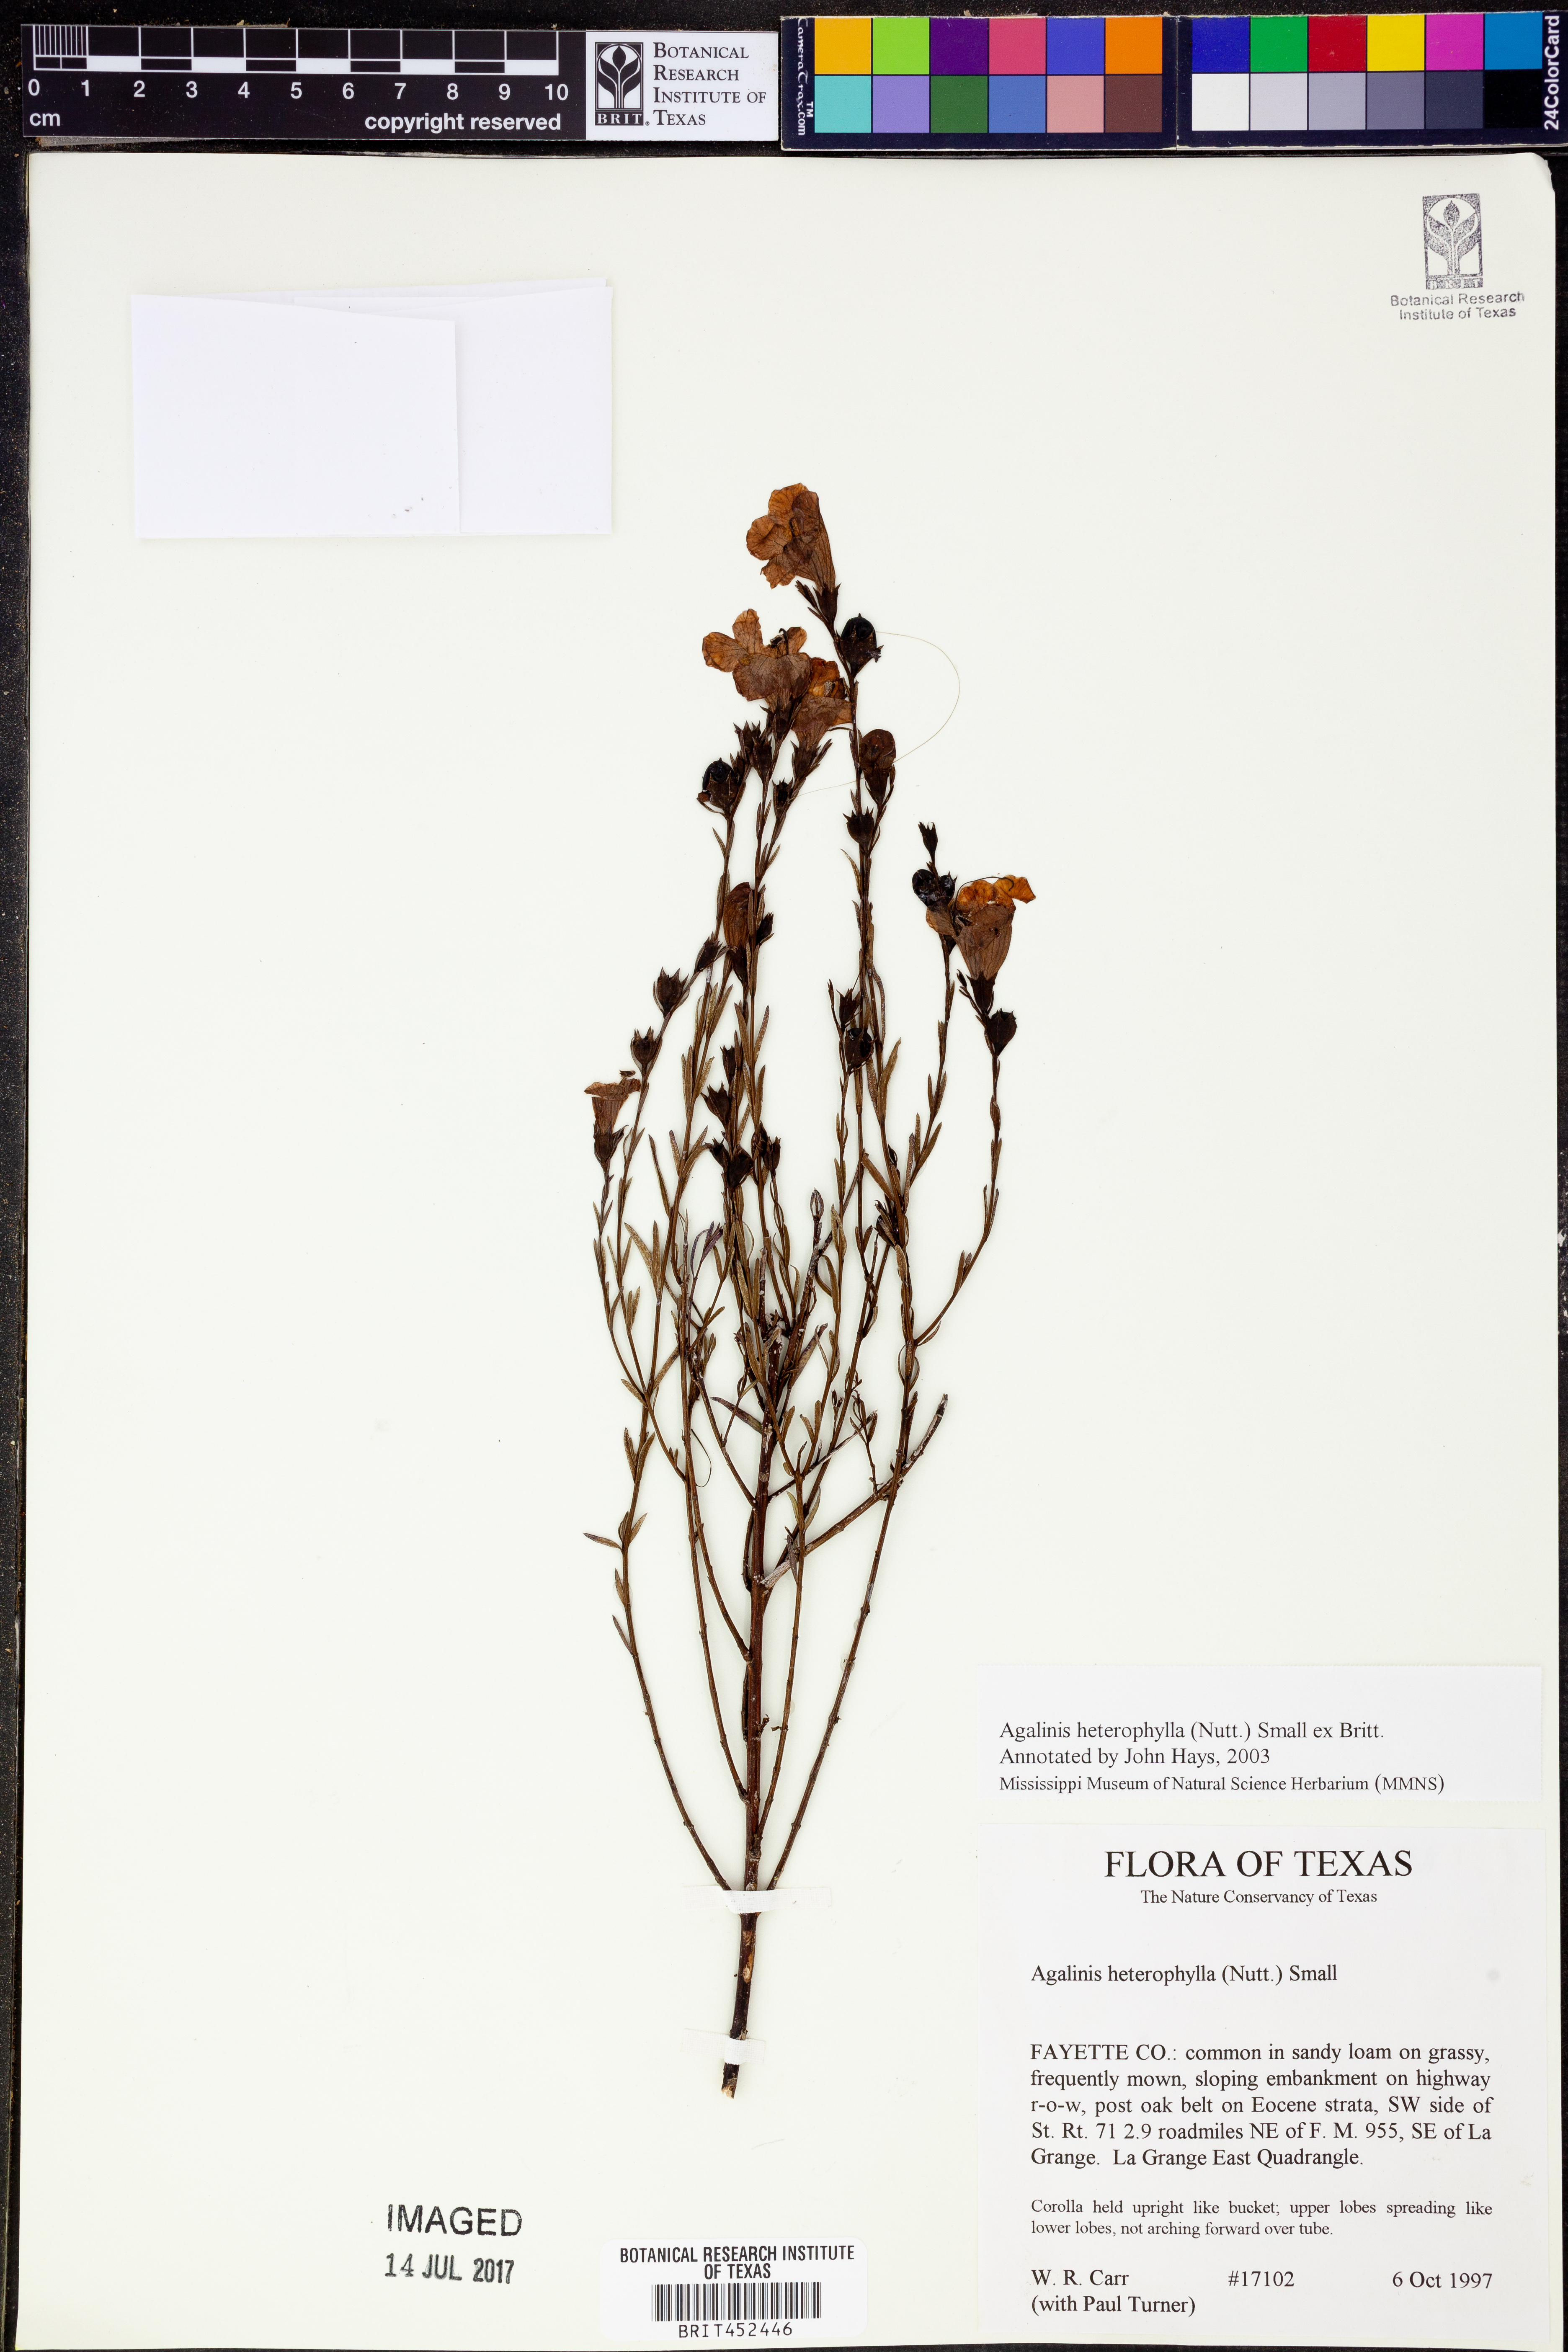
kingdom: Plantae
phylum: Tracheophyta
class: Magnoliopsida
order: Lamiales
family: Orobanchaceae
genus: Agalinis
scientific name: Agalinis heterophylla
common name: Prairie agalinis
